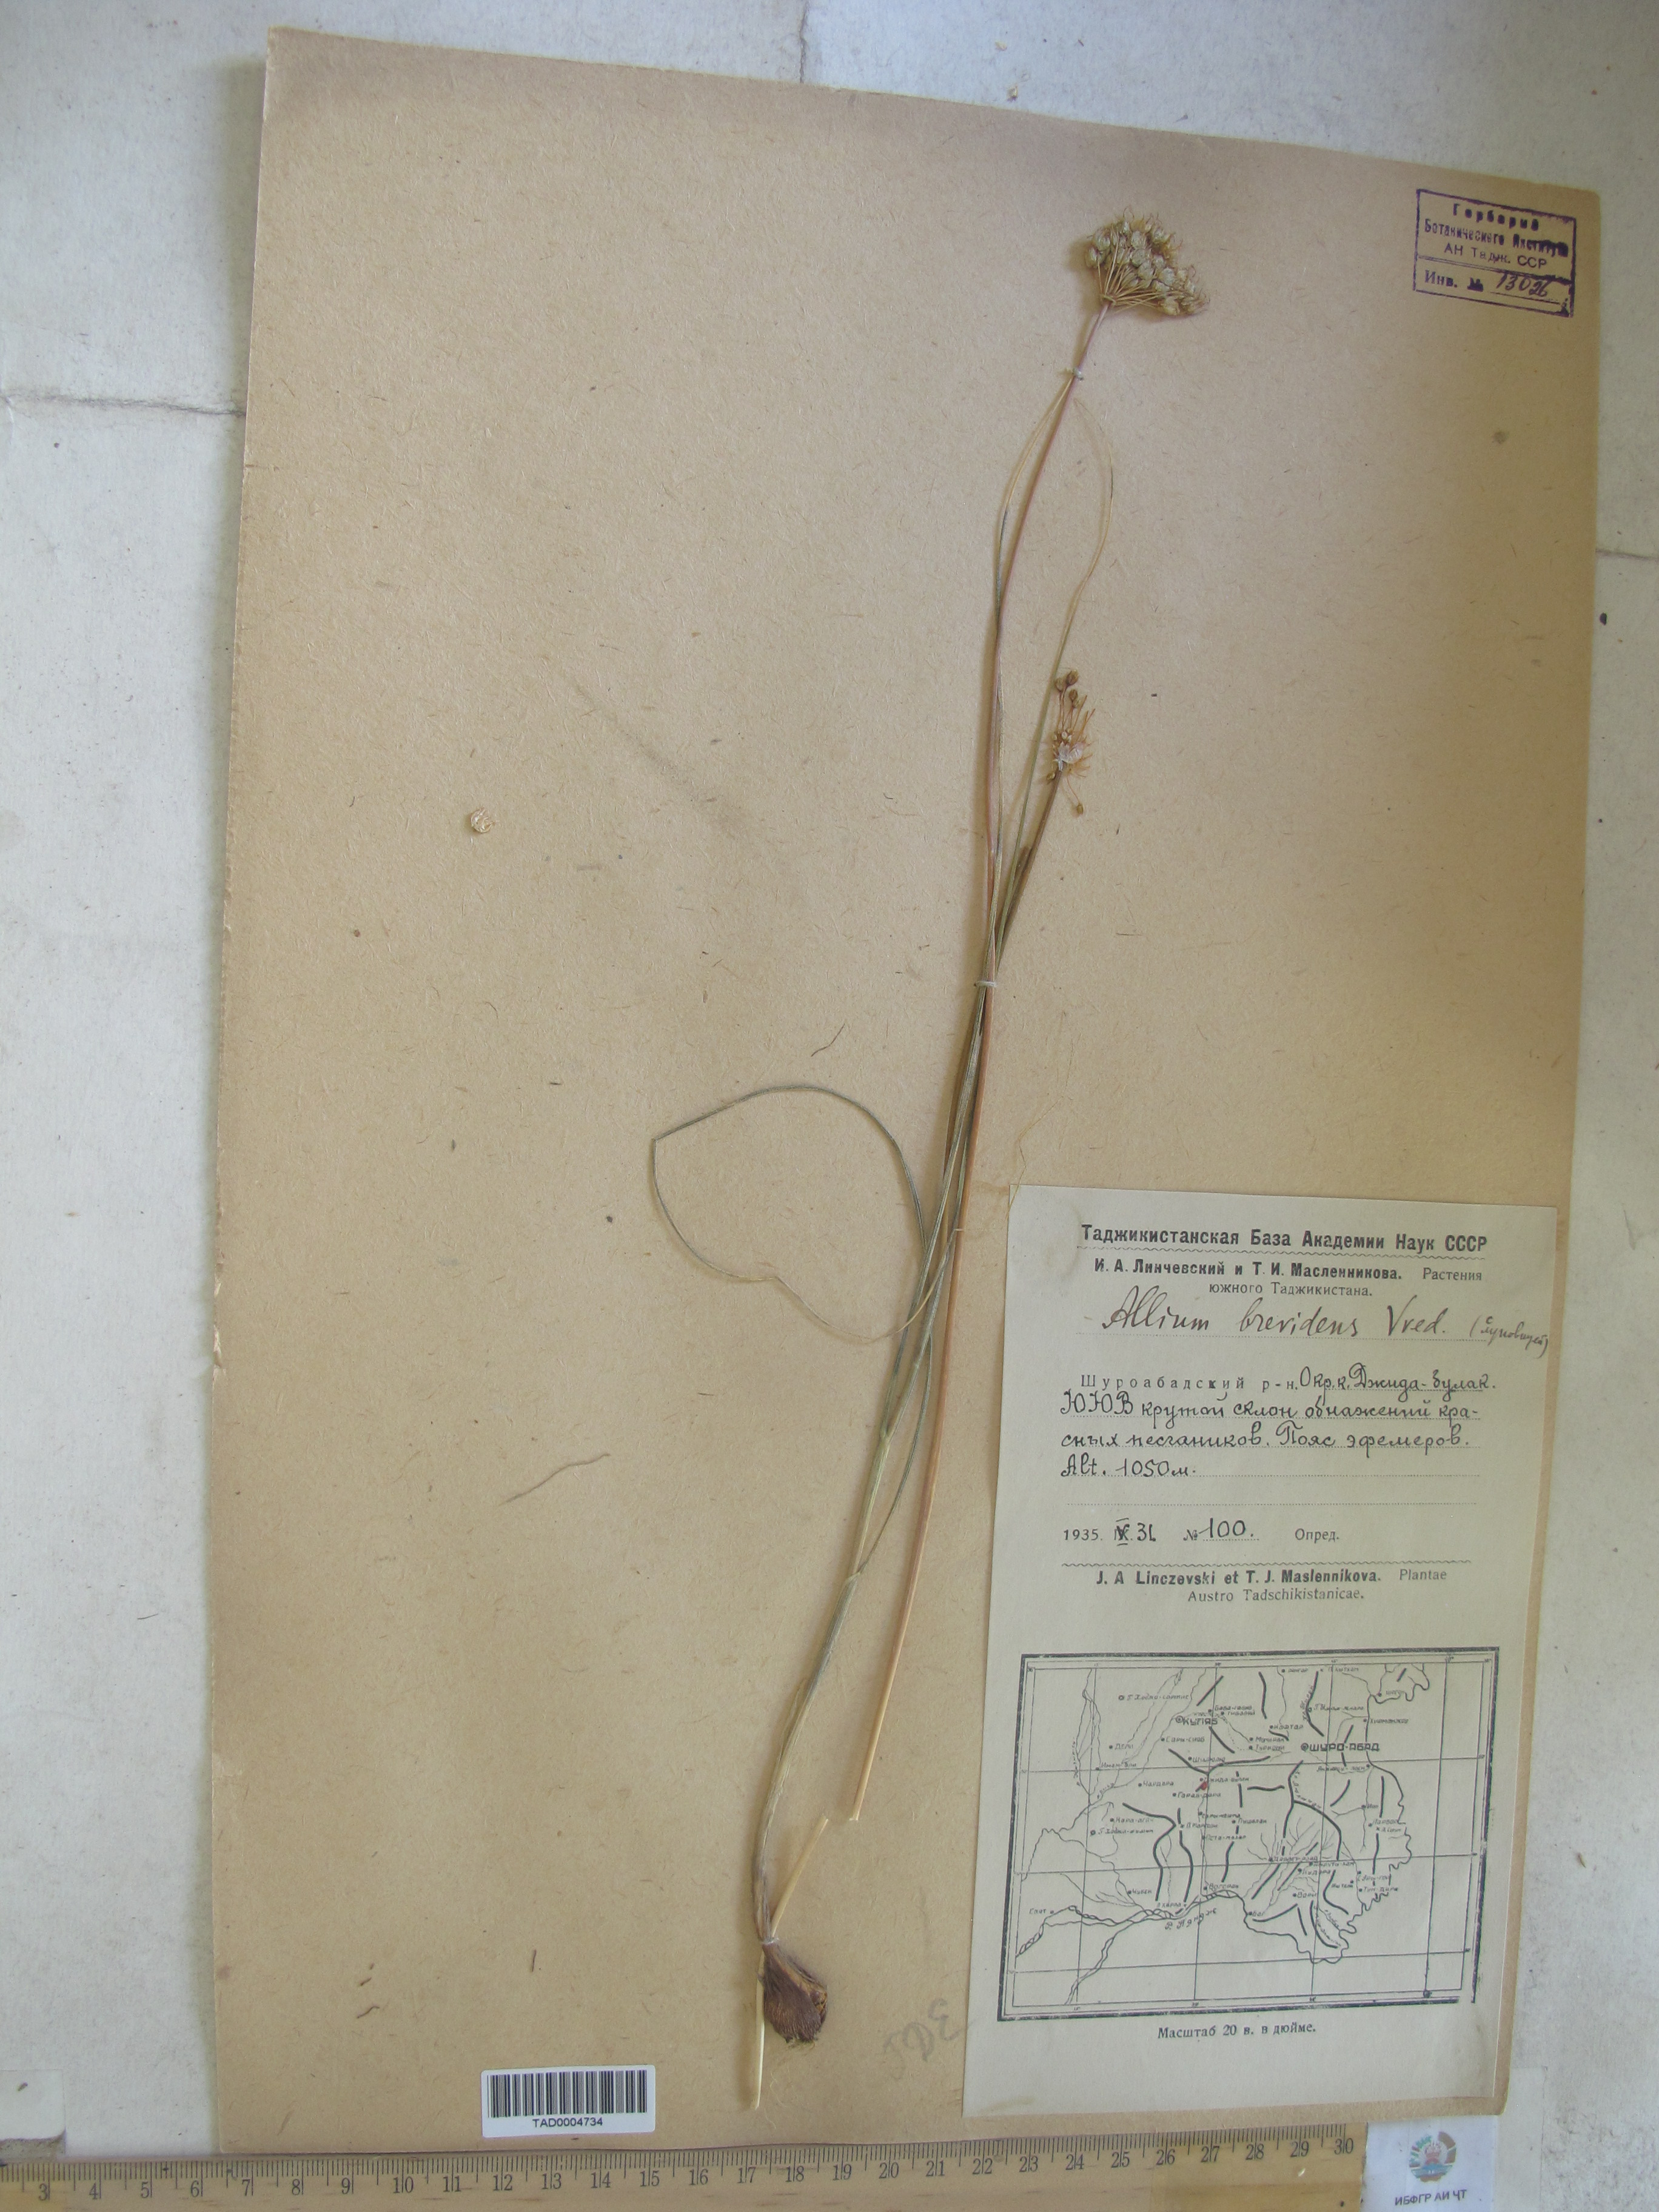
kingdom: Plantae
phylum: Tracheophyta
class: Liliopsida
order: Asparagales
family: Amaryllidaceae
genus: Allium
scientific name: Allium brevidens
